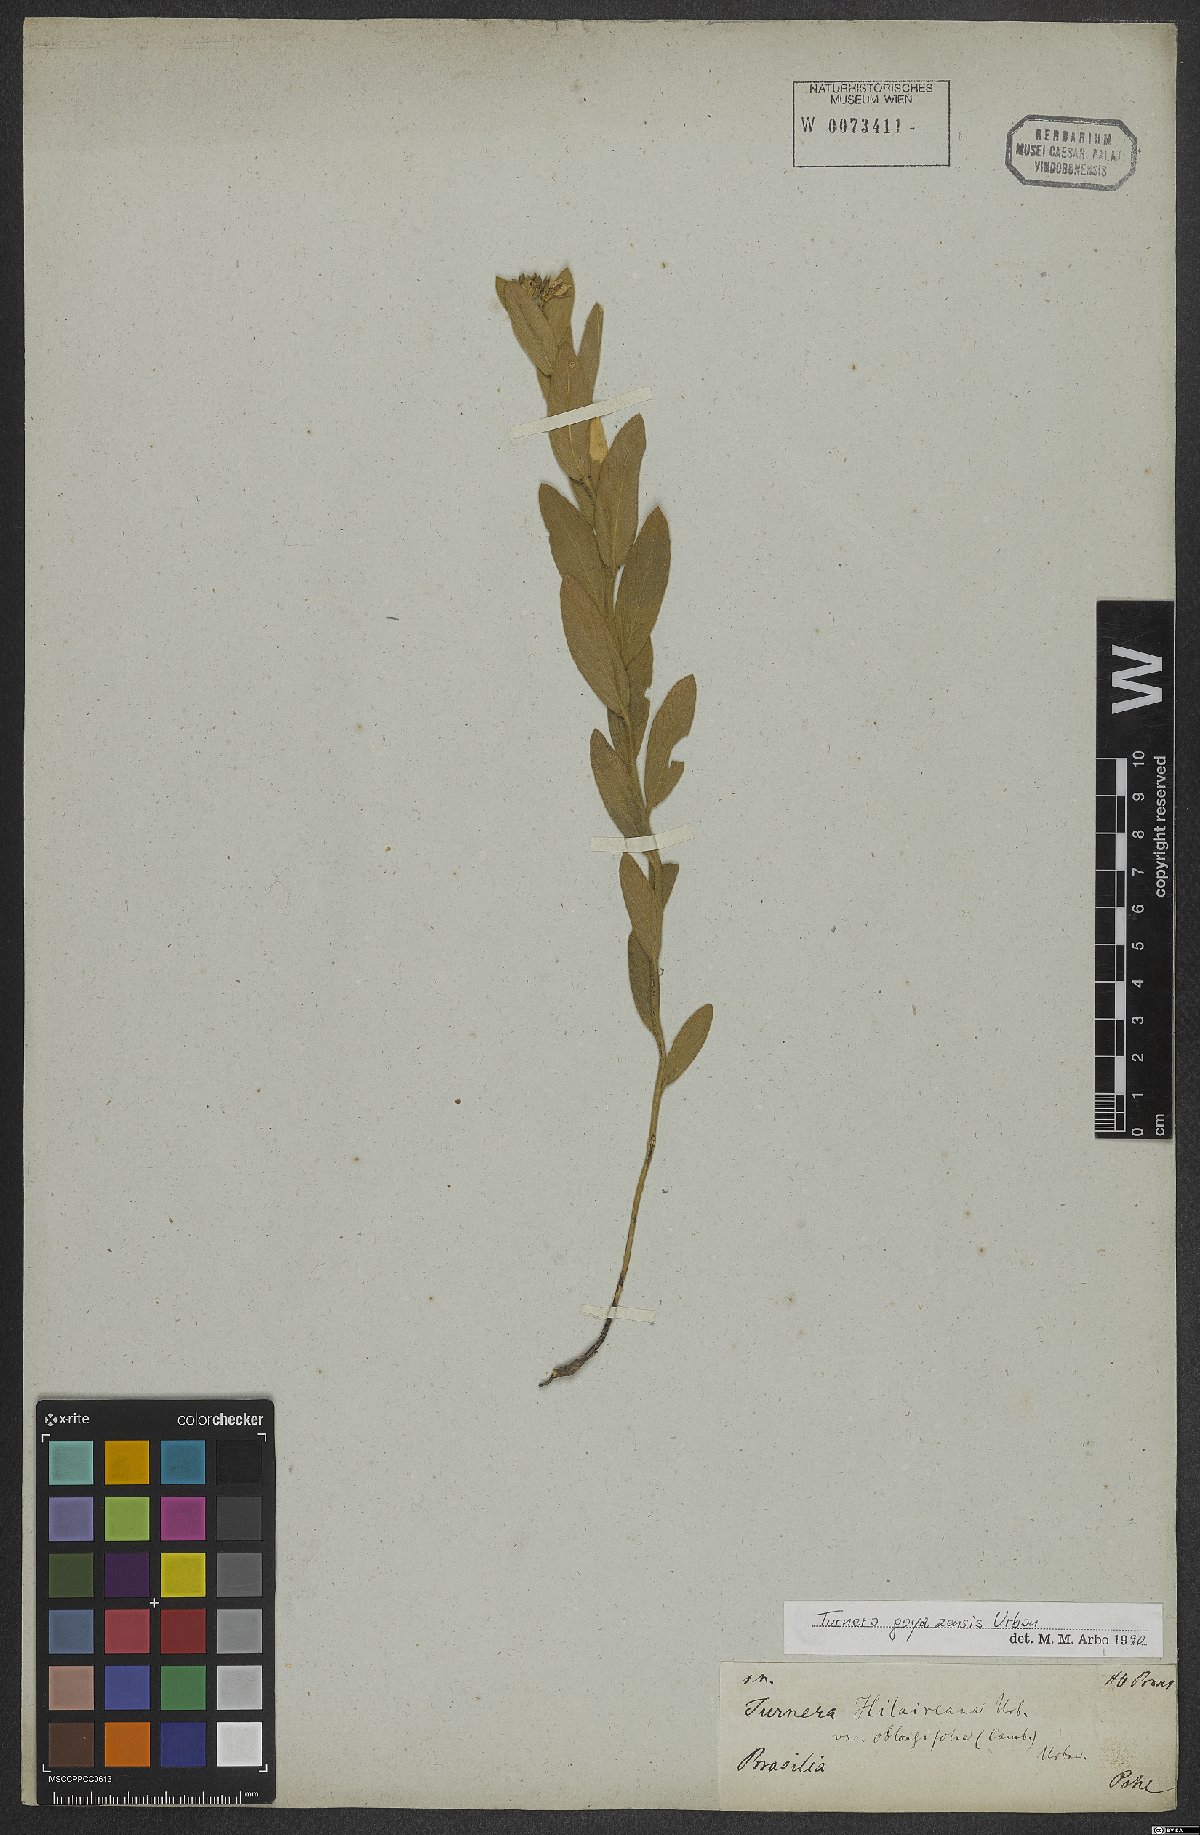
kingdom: Plantae
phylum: Tracheophyta
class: Magnoliopsida
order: Malpighiales
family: Turneraceae
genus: Turnera
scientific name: Turnera oblongifolia
